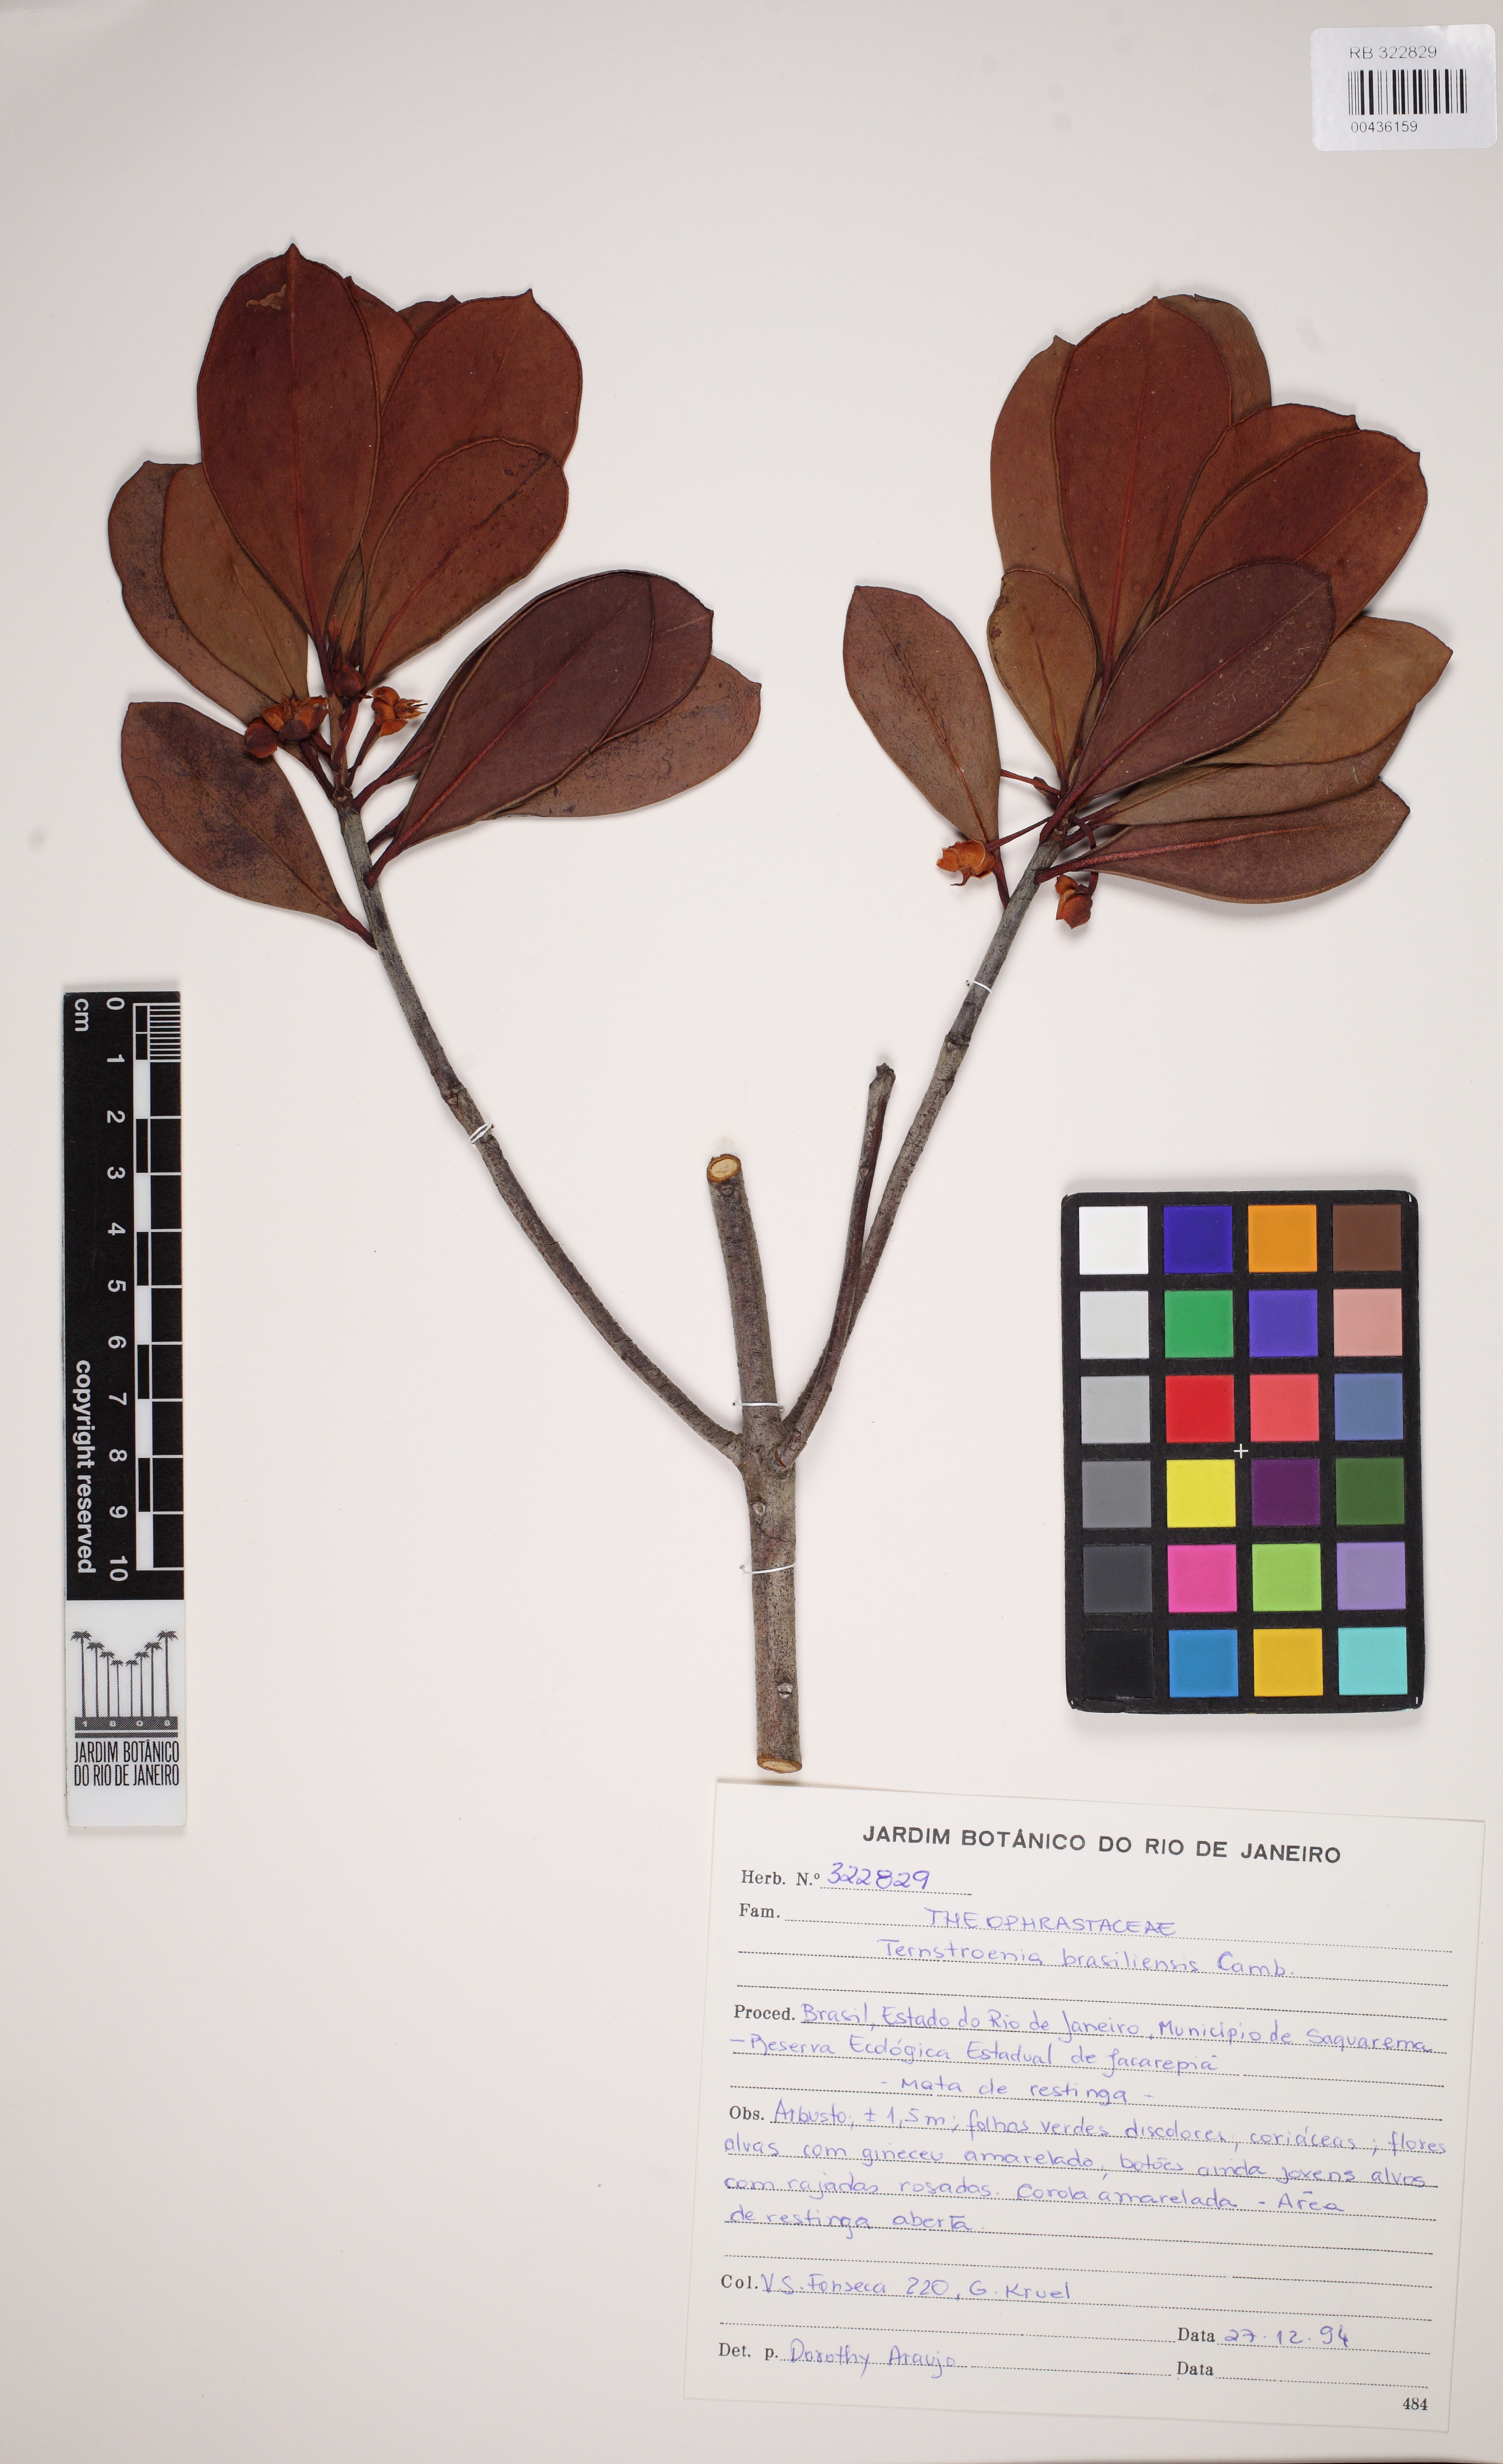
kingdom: Plantae
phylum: Tracheophyta
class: Magnoliopsida
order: Ericales
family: Pentaphylacaceae
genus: Ternstroemia
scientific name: Ternstroemia brasiliensis
